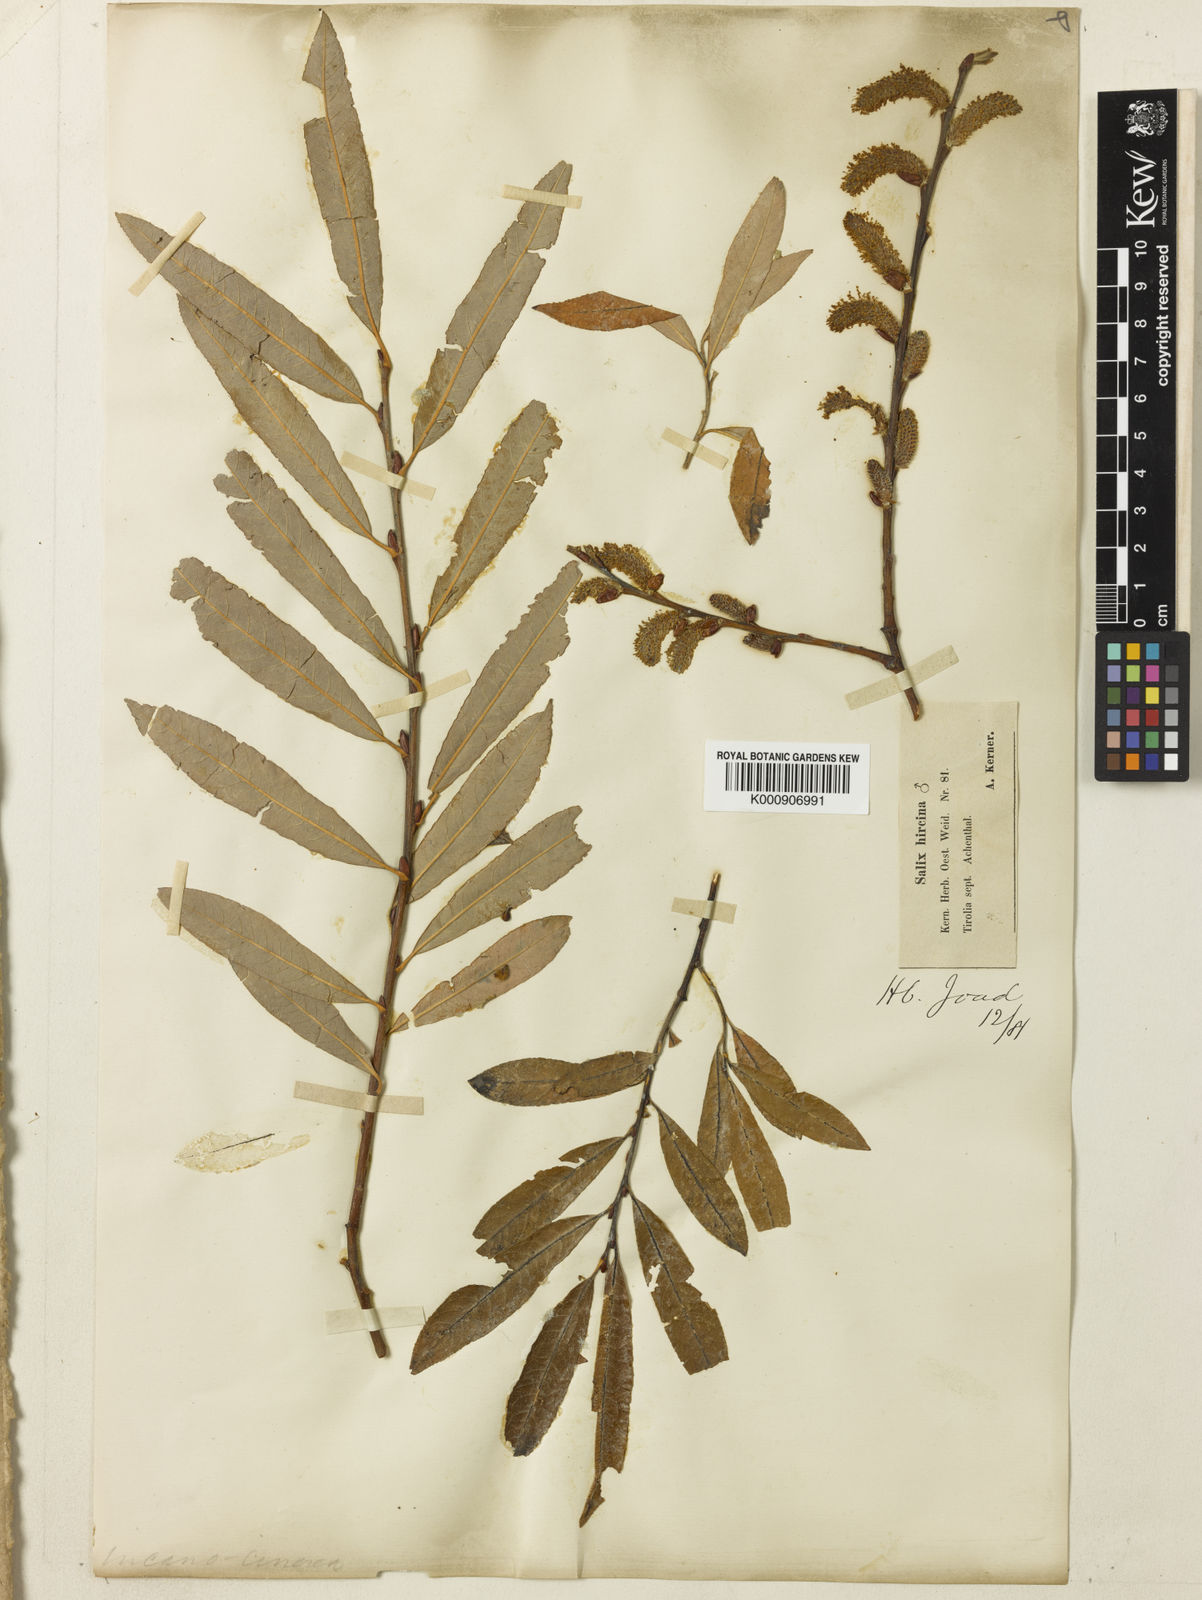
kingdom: Plantae
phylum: Tracheophyta
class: Magnoliopsida
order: Malpighiales
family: Salicaceae
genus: Salix
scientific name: Salix cinerea
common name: Common sallow
